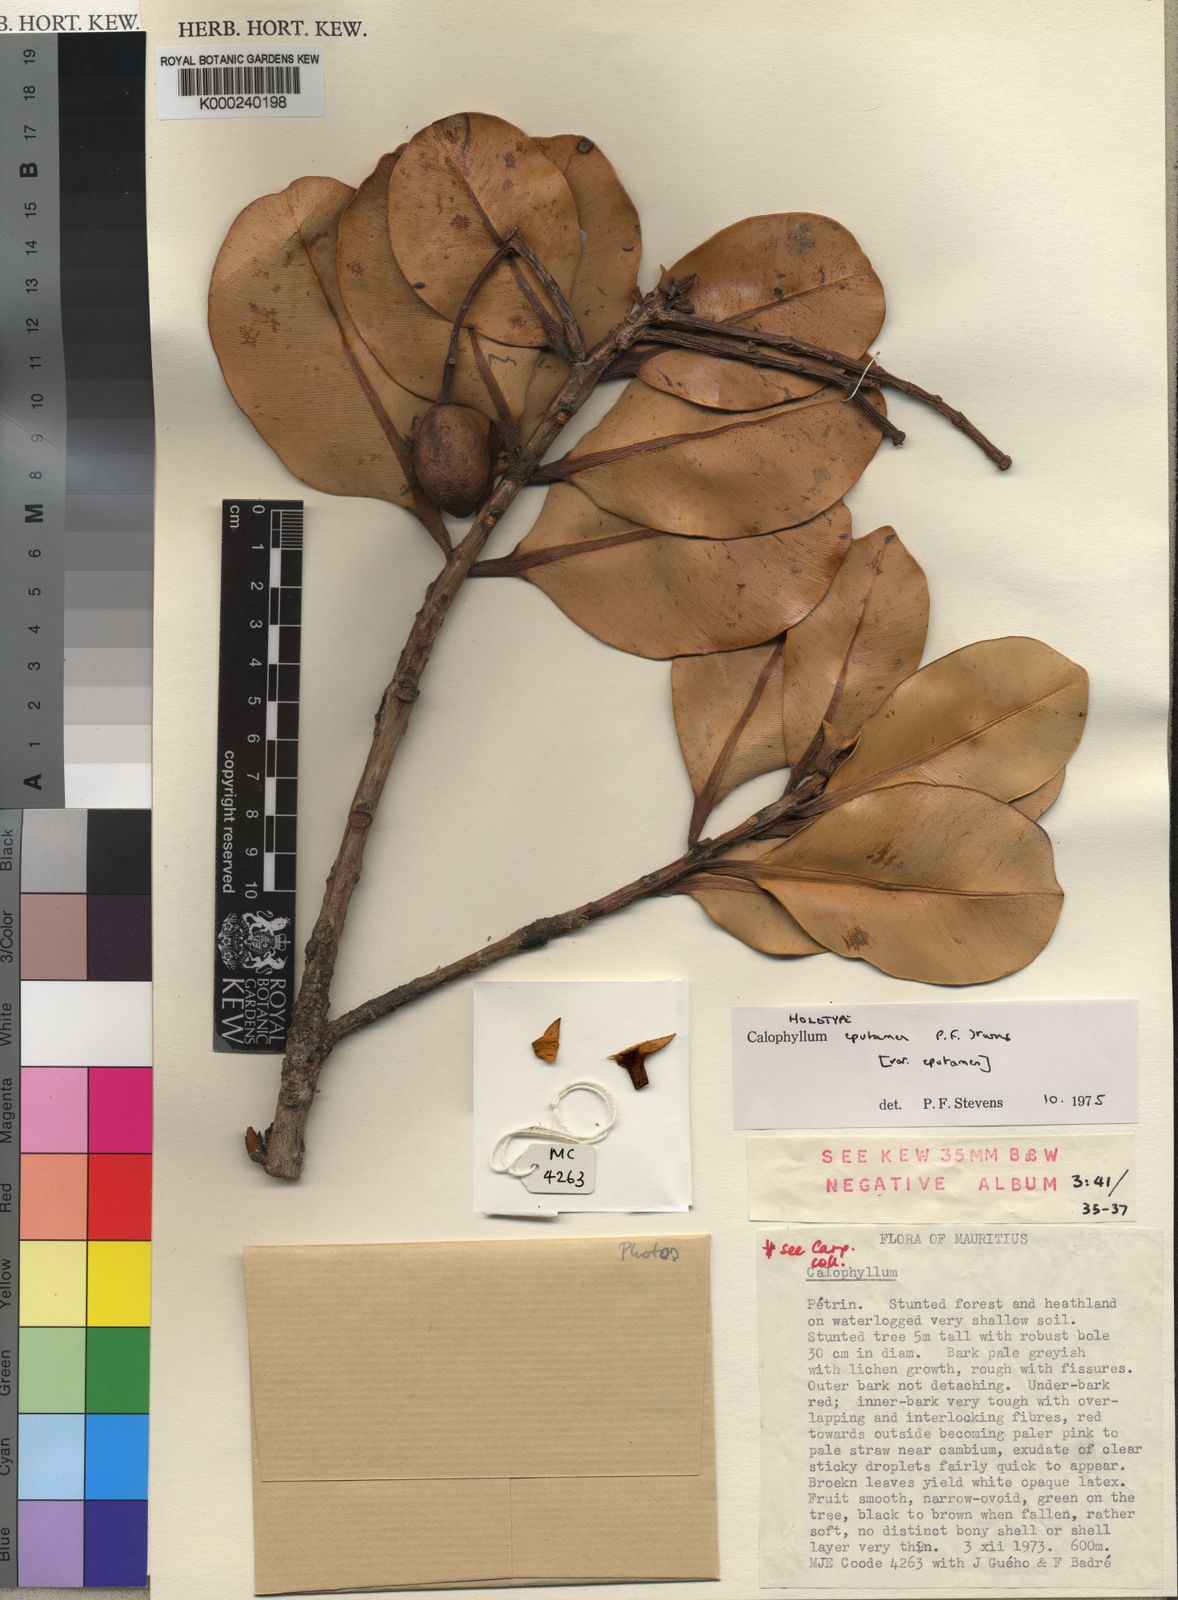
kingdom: Plantae
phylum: Tracheophyta
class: Magnoliopsida
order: Malpighiales
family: Calophyllaceae
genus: Calophyllum
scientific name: Calophyllum
